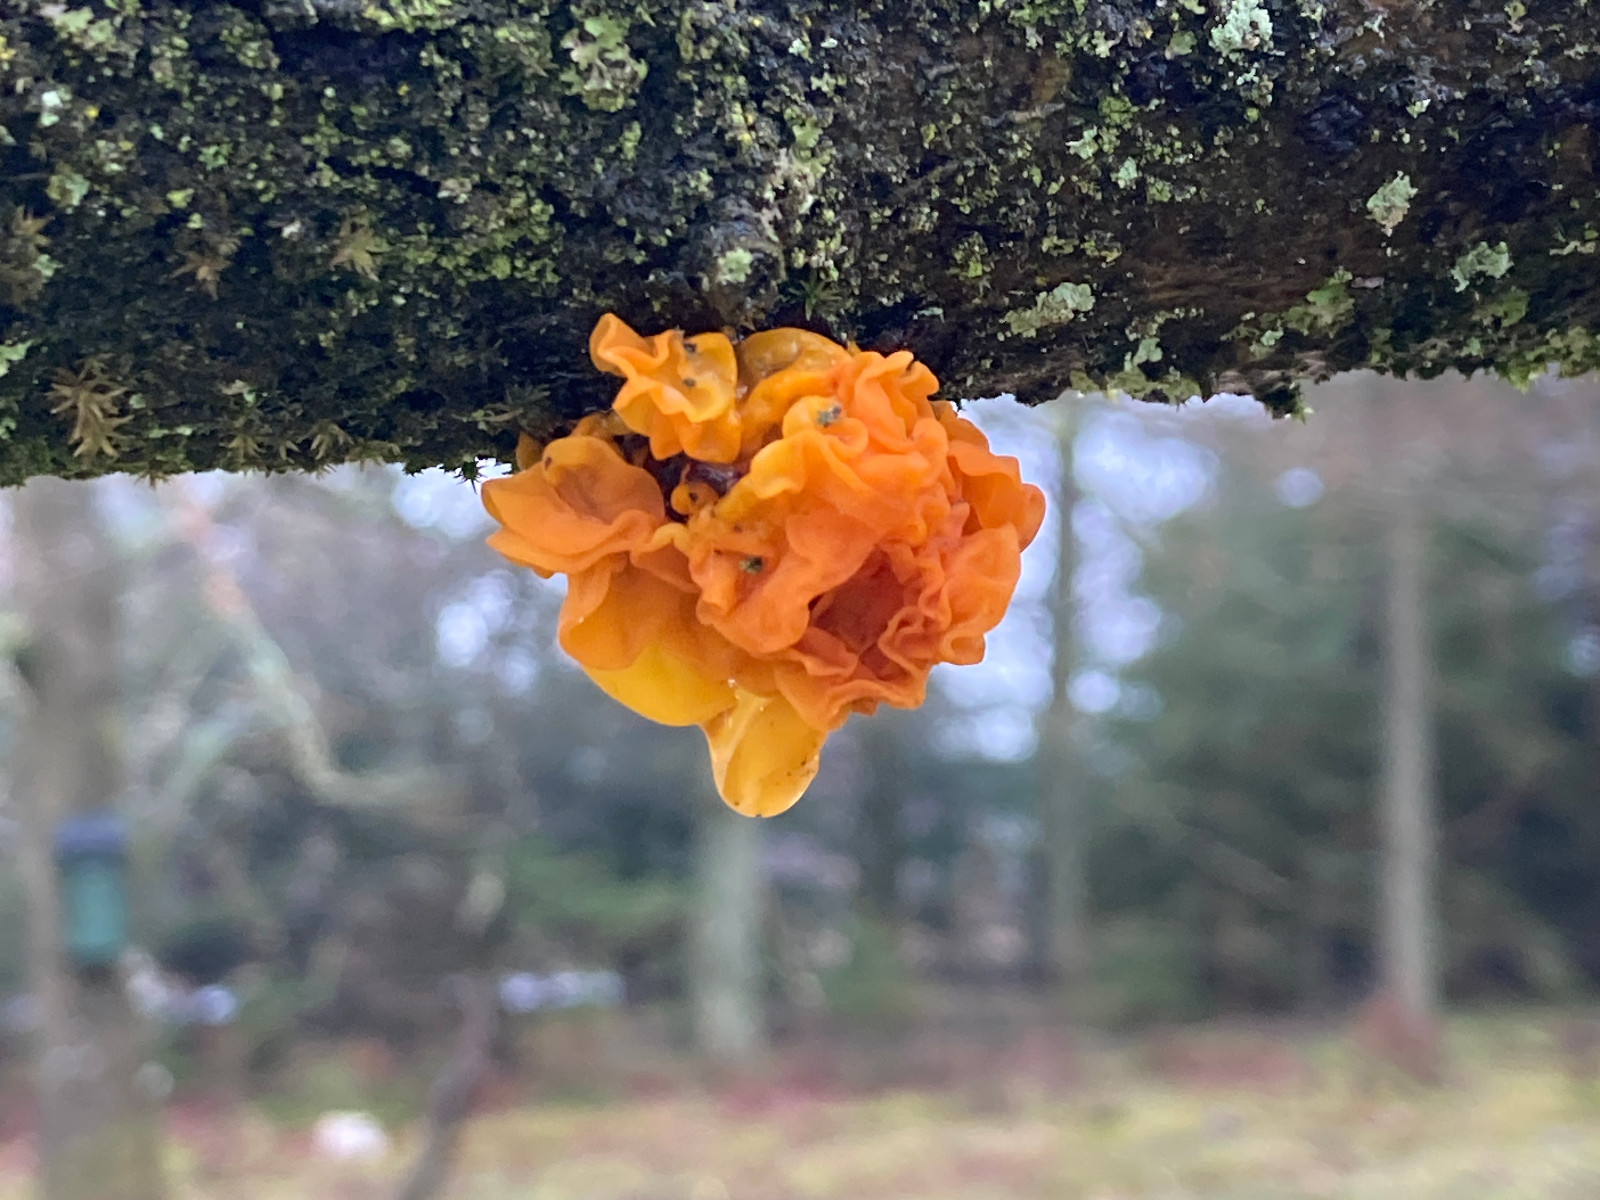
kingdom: Fungi
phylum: Basidiomycota
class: Tremellomycetes
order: Tremellales
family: Tremellaceae
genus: Tremella
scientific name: Tremella mesenterica
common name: gul bævresvamp
